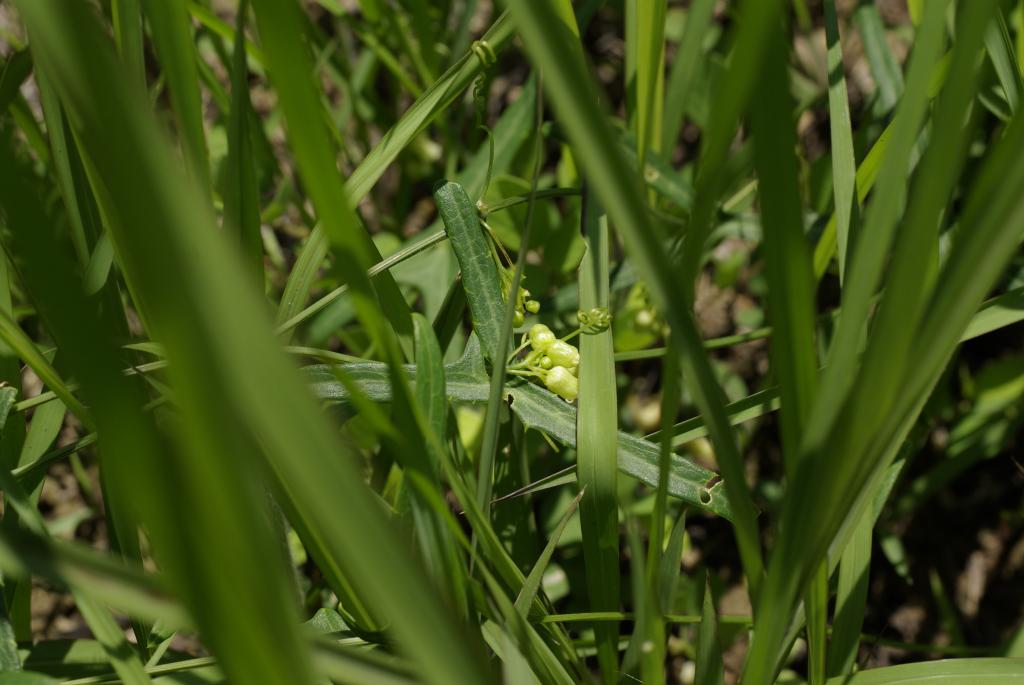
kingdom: Plantae
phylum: Tracheophyta
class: Magnoliopsida
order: Cucurbitales
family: Cucurbitaceae
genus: Solena
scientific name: Solena amplexicaulis
